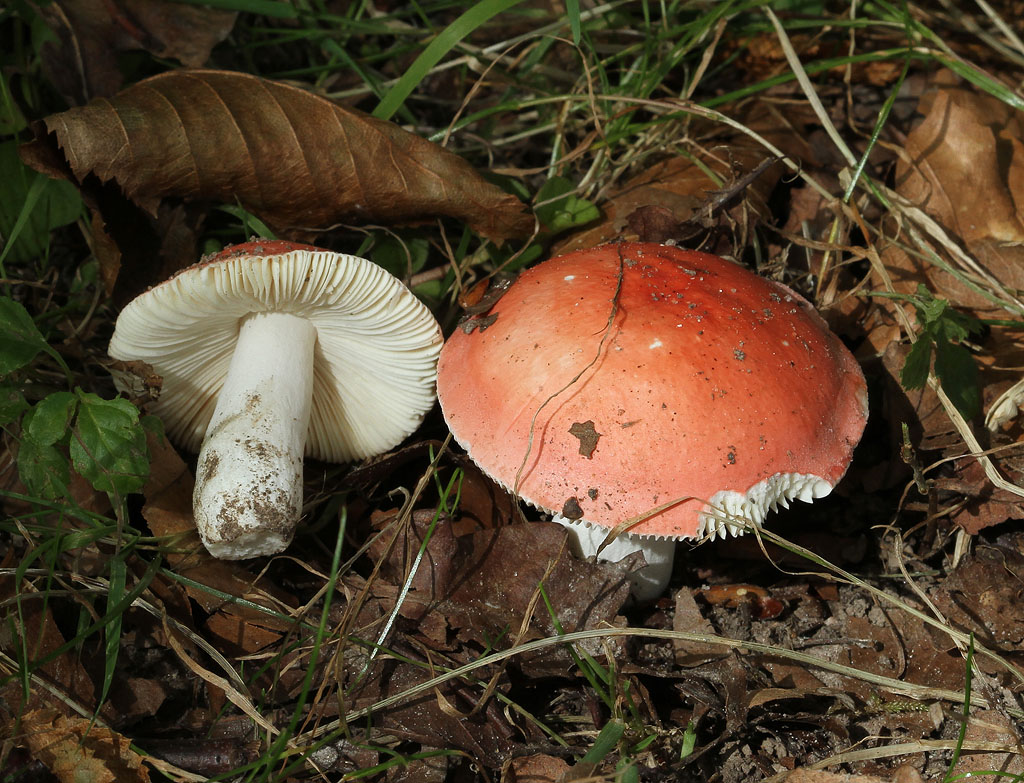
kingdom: Fungi
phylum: Basidiomycota
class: Agaricomycetes
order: Russulales
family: Russulaceae
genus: Russula
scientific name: Russula pseudointegra
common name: cinnoberrød skørhat
